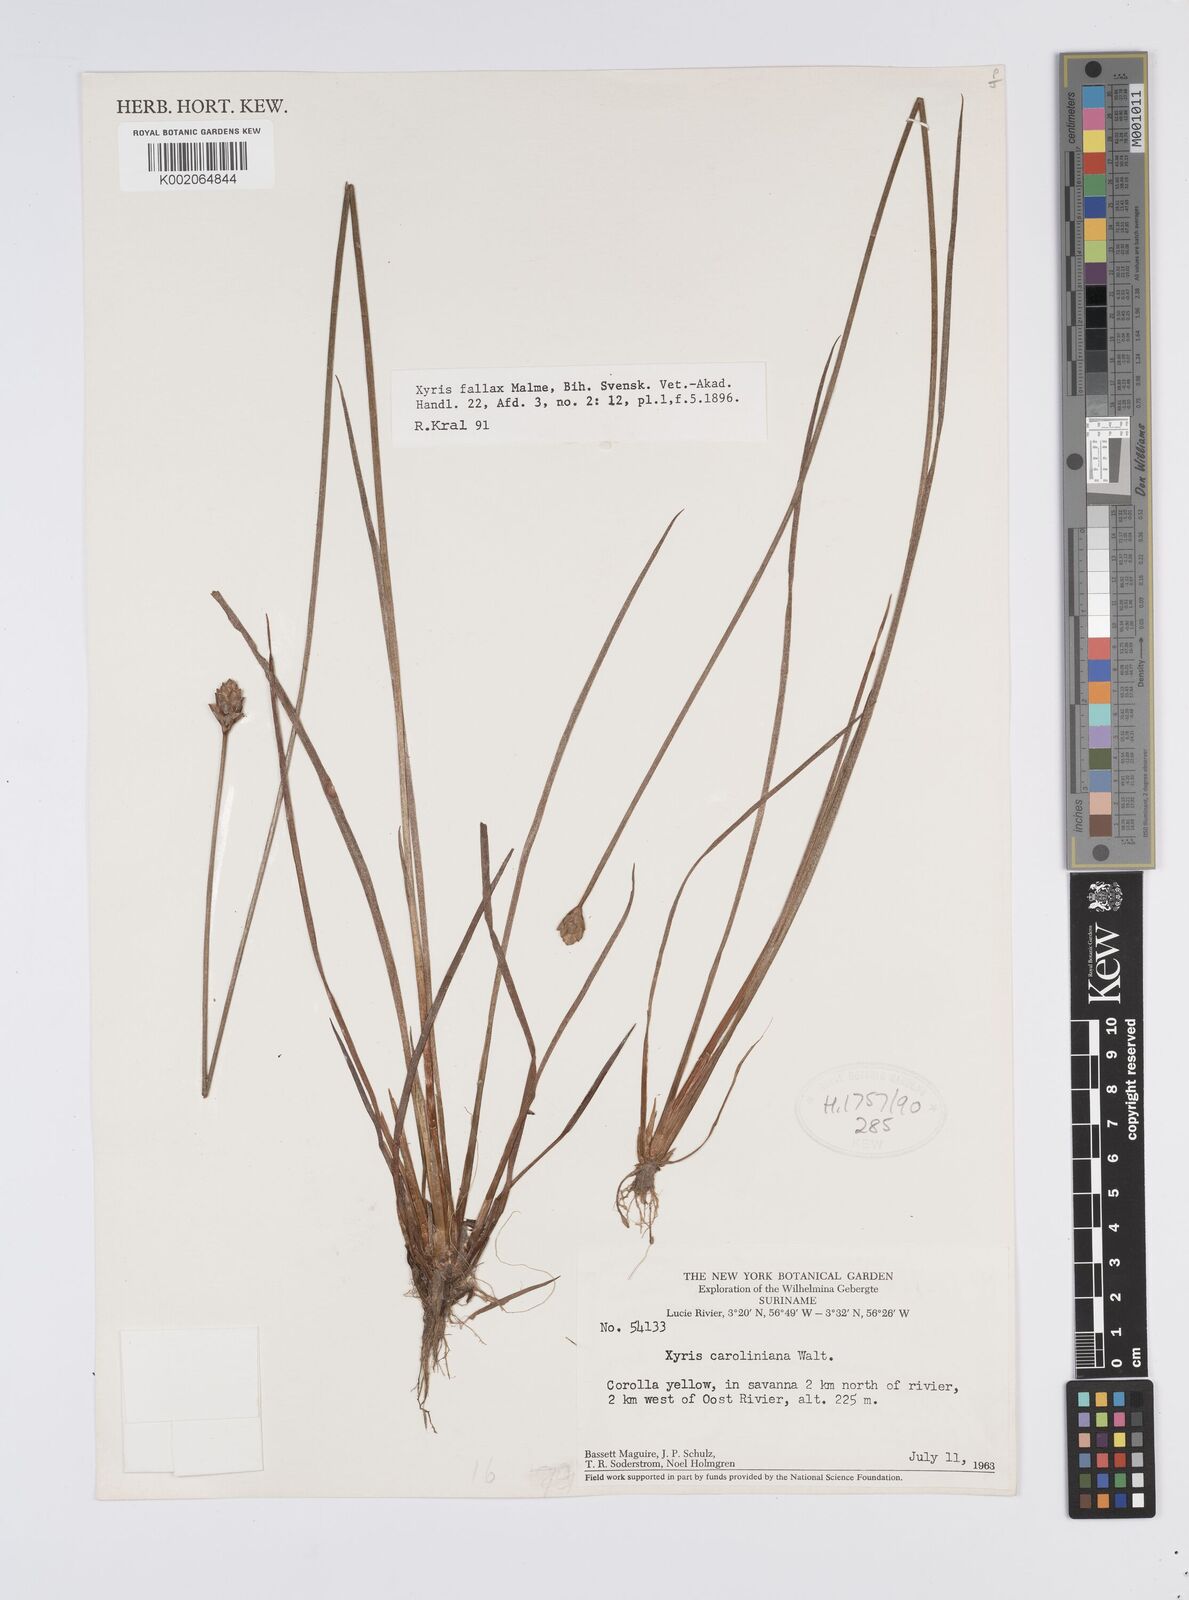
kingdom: Plantae
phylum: Tracheophyta
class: Liliopsida
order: Poales
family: Xyridaceae
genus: Xyris
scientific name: Xyris fallax
